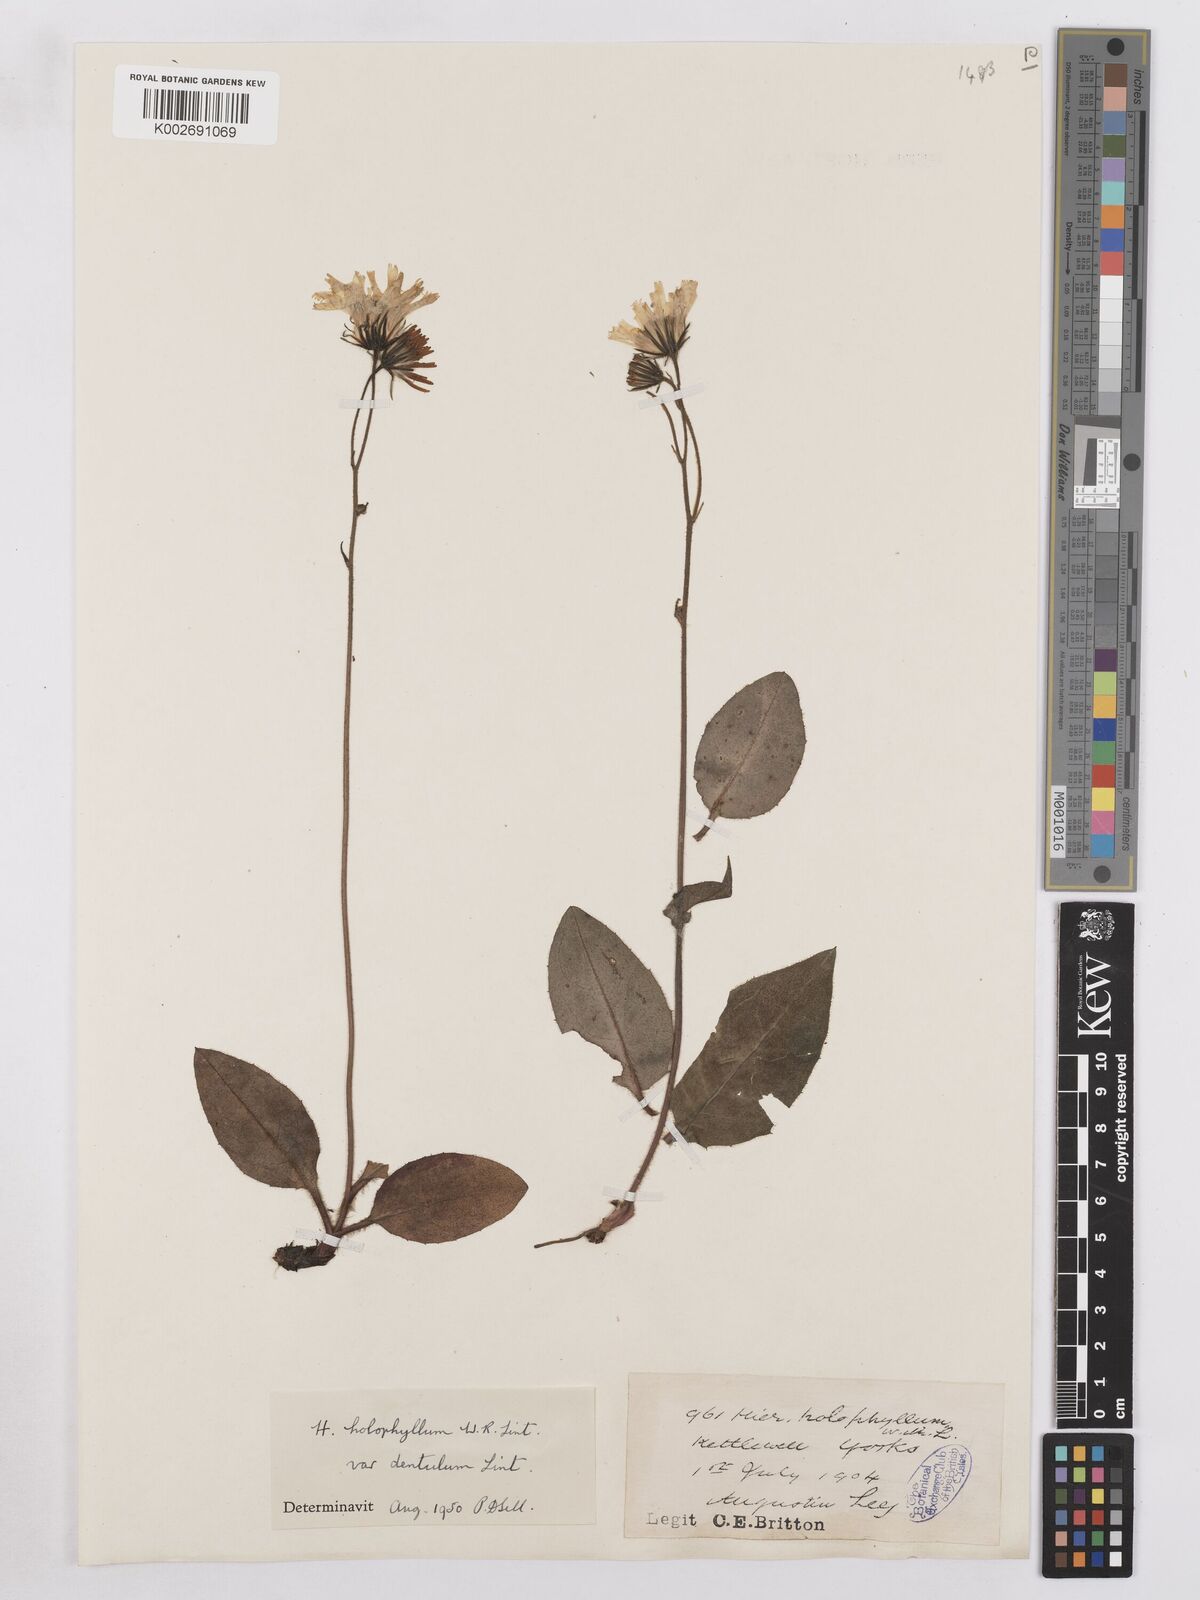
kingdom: Plantae
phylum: Tracheophyta
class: Magnoliopsida
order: Asterales
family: Asteraceae
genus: Hieracium
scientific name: Hieracium holophyllum
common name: Undivided-leaved hawkweed
